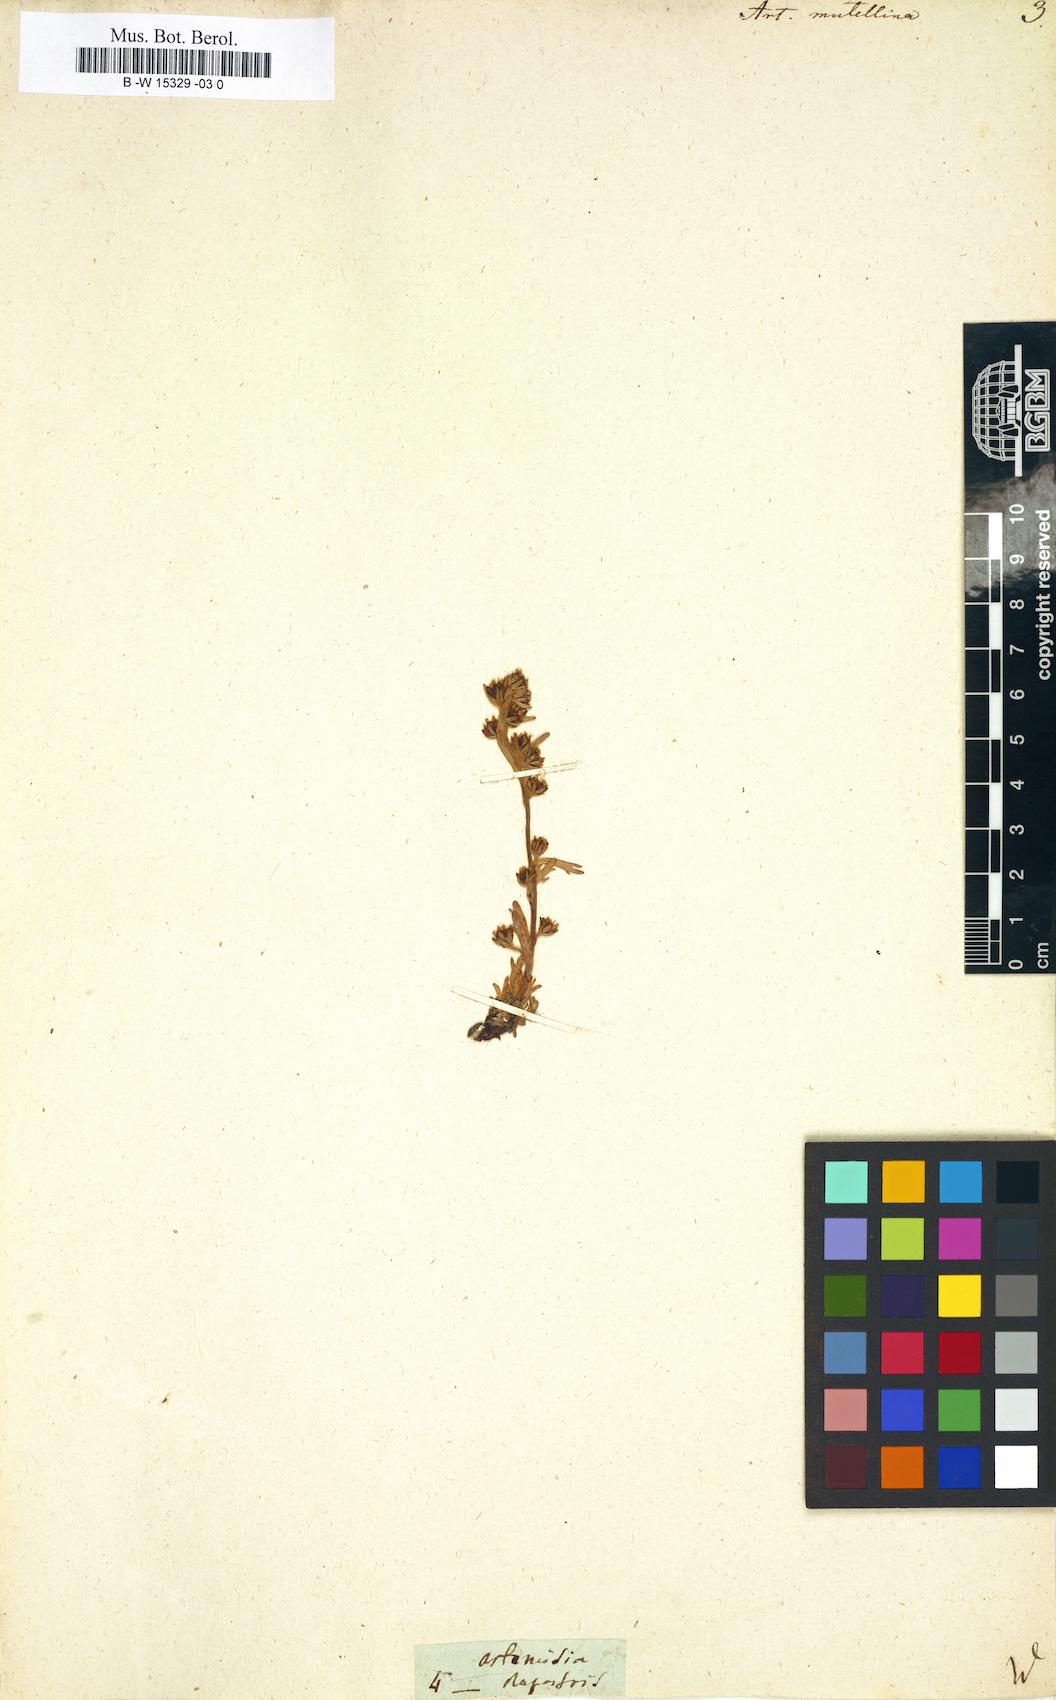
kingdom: Plantae
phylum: Tracheophyta
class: Magnoliopsida
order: Asterales
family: Asteraceae
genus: Artemisia
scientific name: Artemisia mutellina
